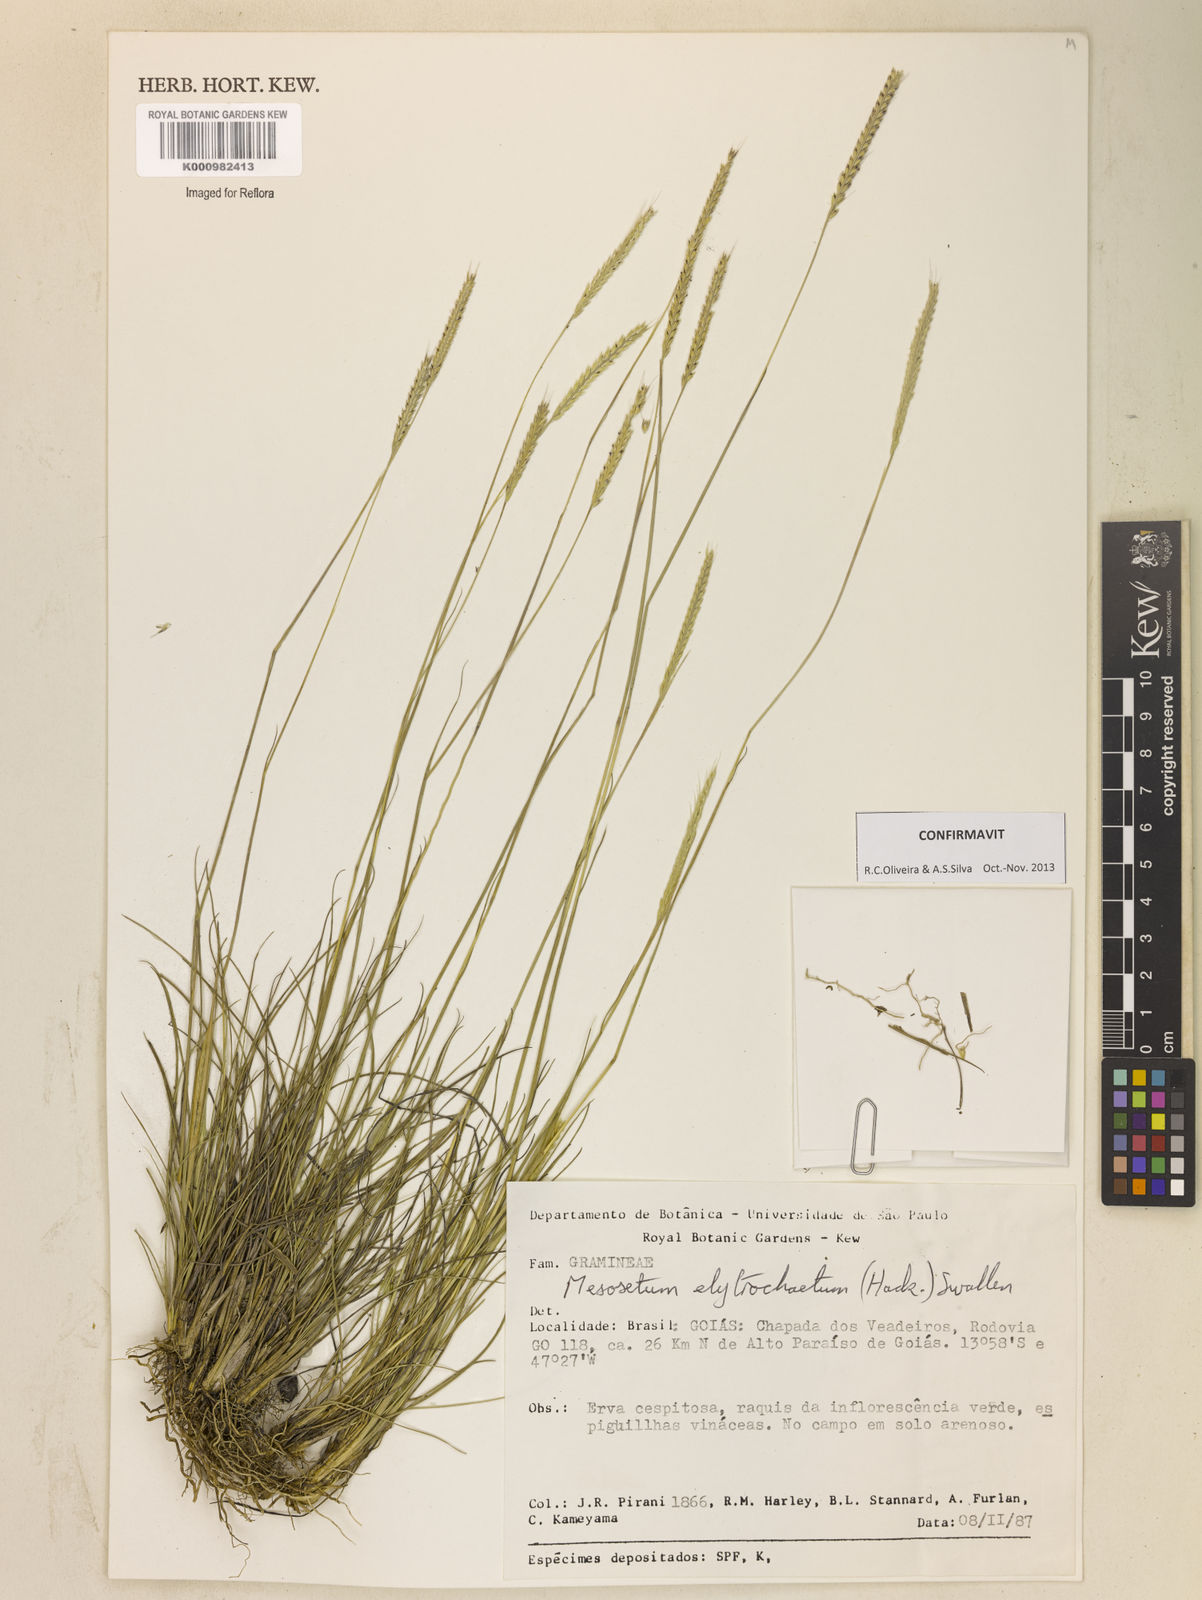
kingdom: Plantae
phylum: Tracheophyta
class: Liliopsida
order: Poales
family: Poaceae
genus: Mesosetum
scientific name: Mesosetum elytrochaetum
